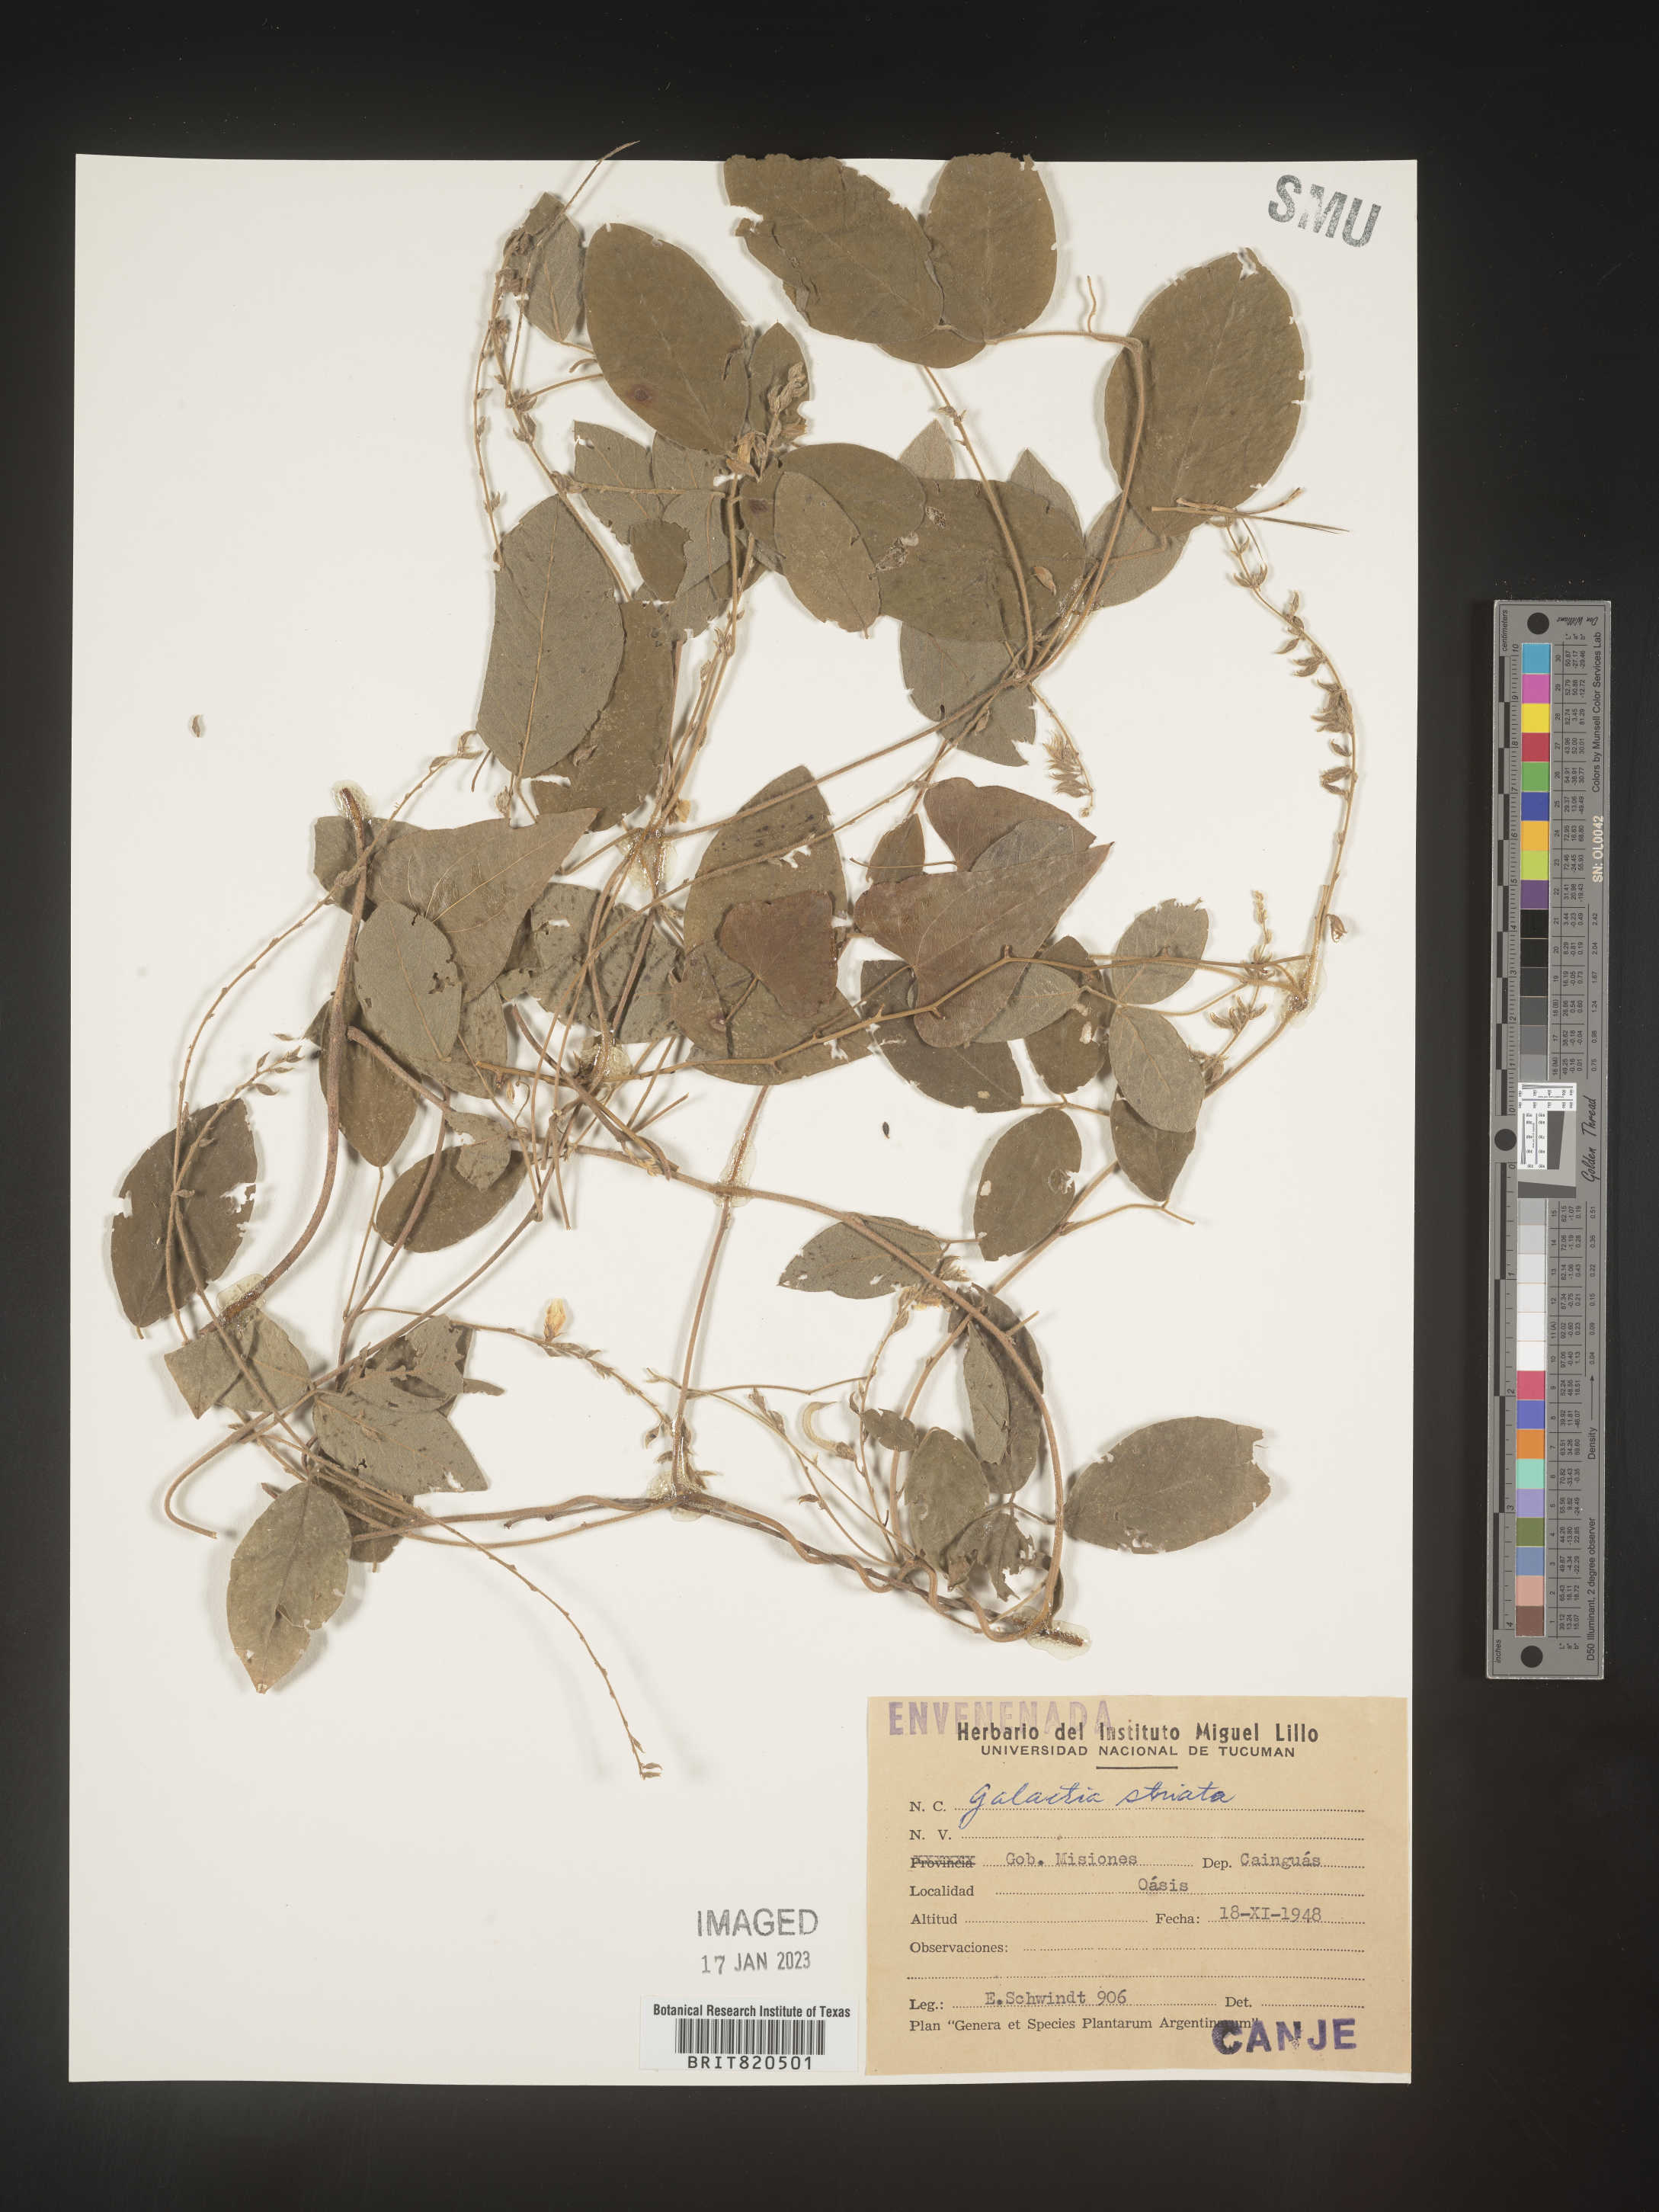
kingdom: Plantae
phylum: Tracheophyta
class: Magnoliopsida
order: Fabales
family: Fabaceae
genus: Galactia
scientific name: Galactia
